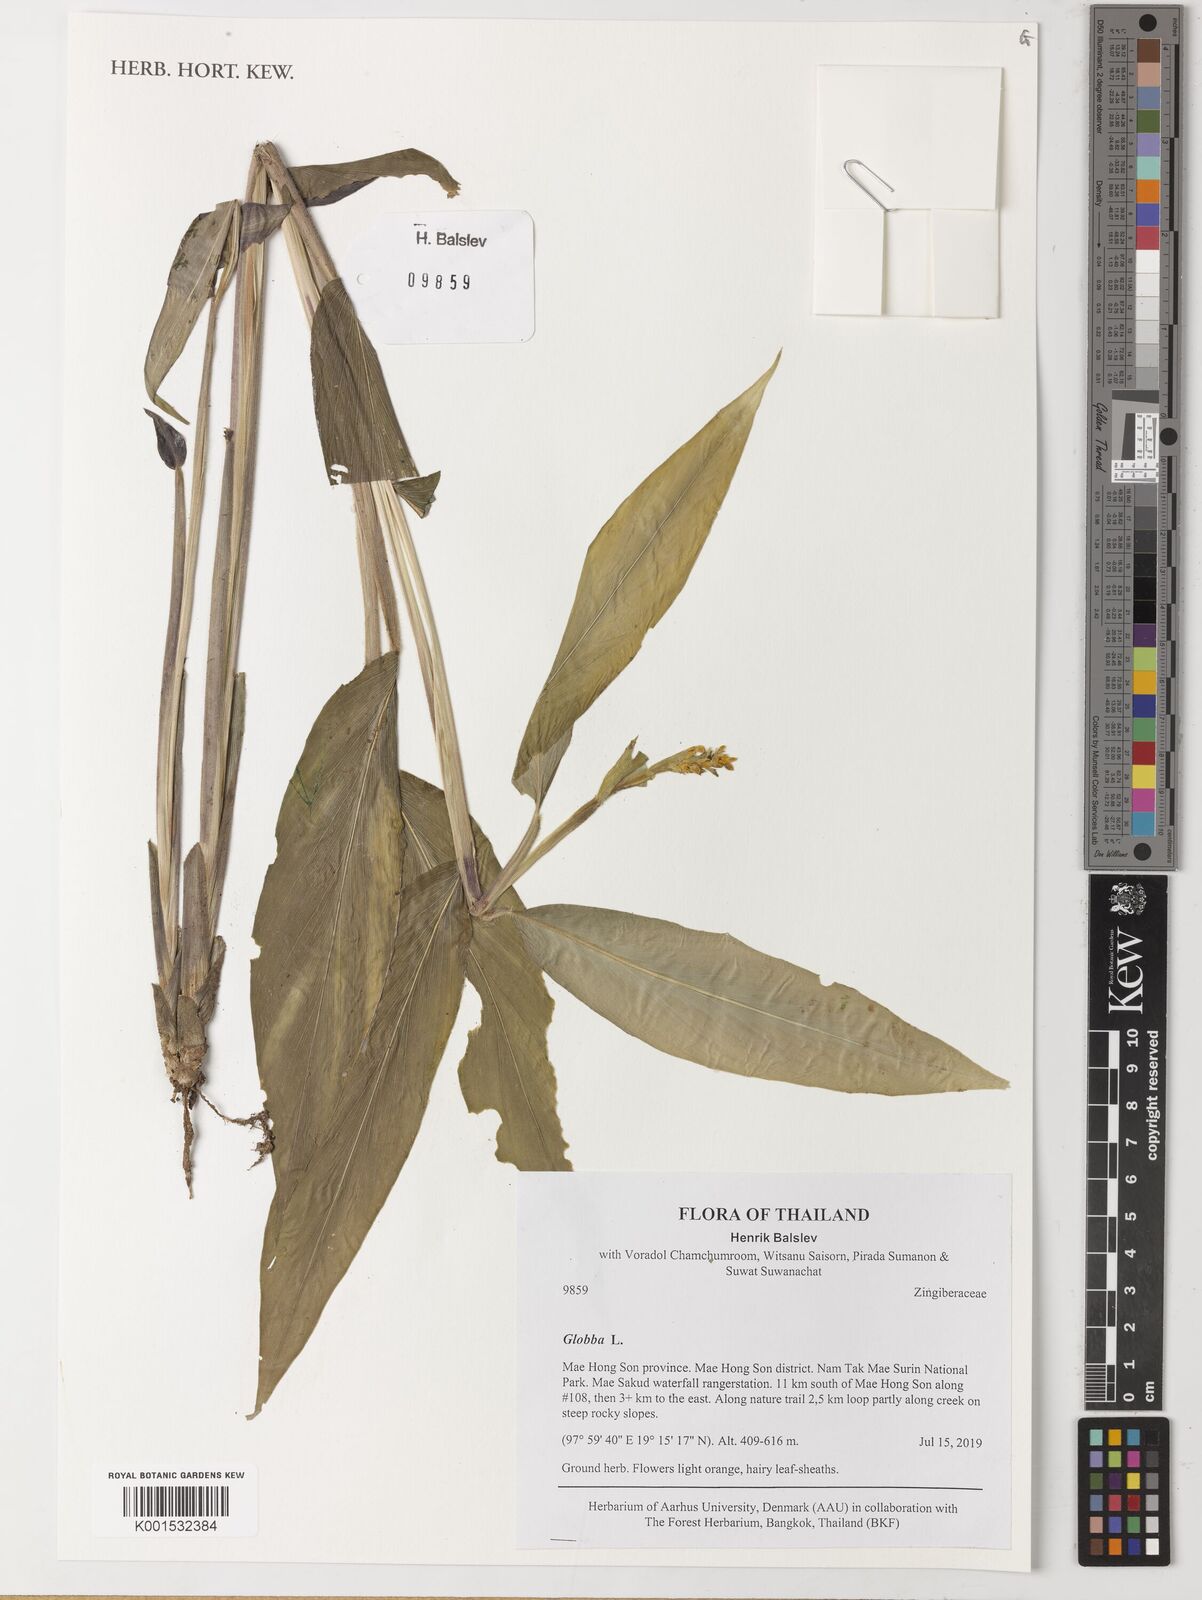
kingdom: Plantae
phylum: Tracheophyta
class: Liliopsida
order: Zingiberales
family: Zingiberaceae
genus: Globba
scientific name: Globba
